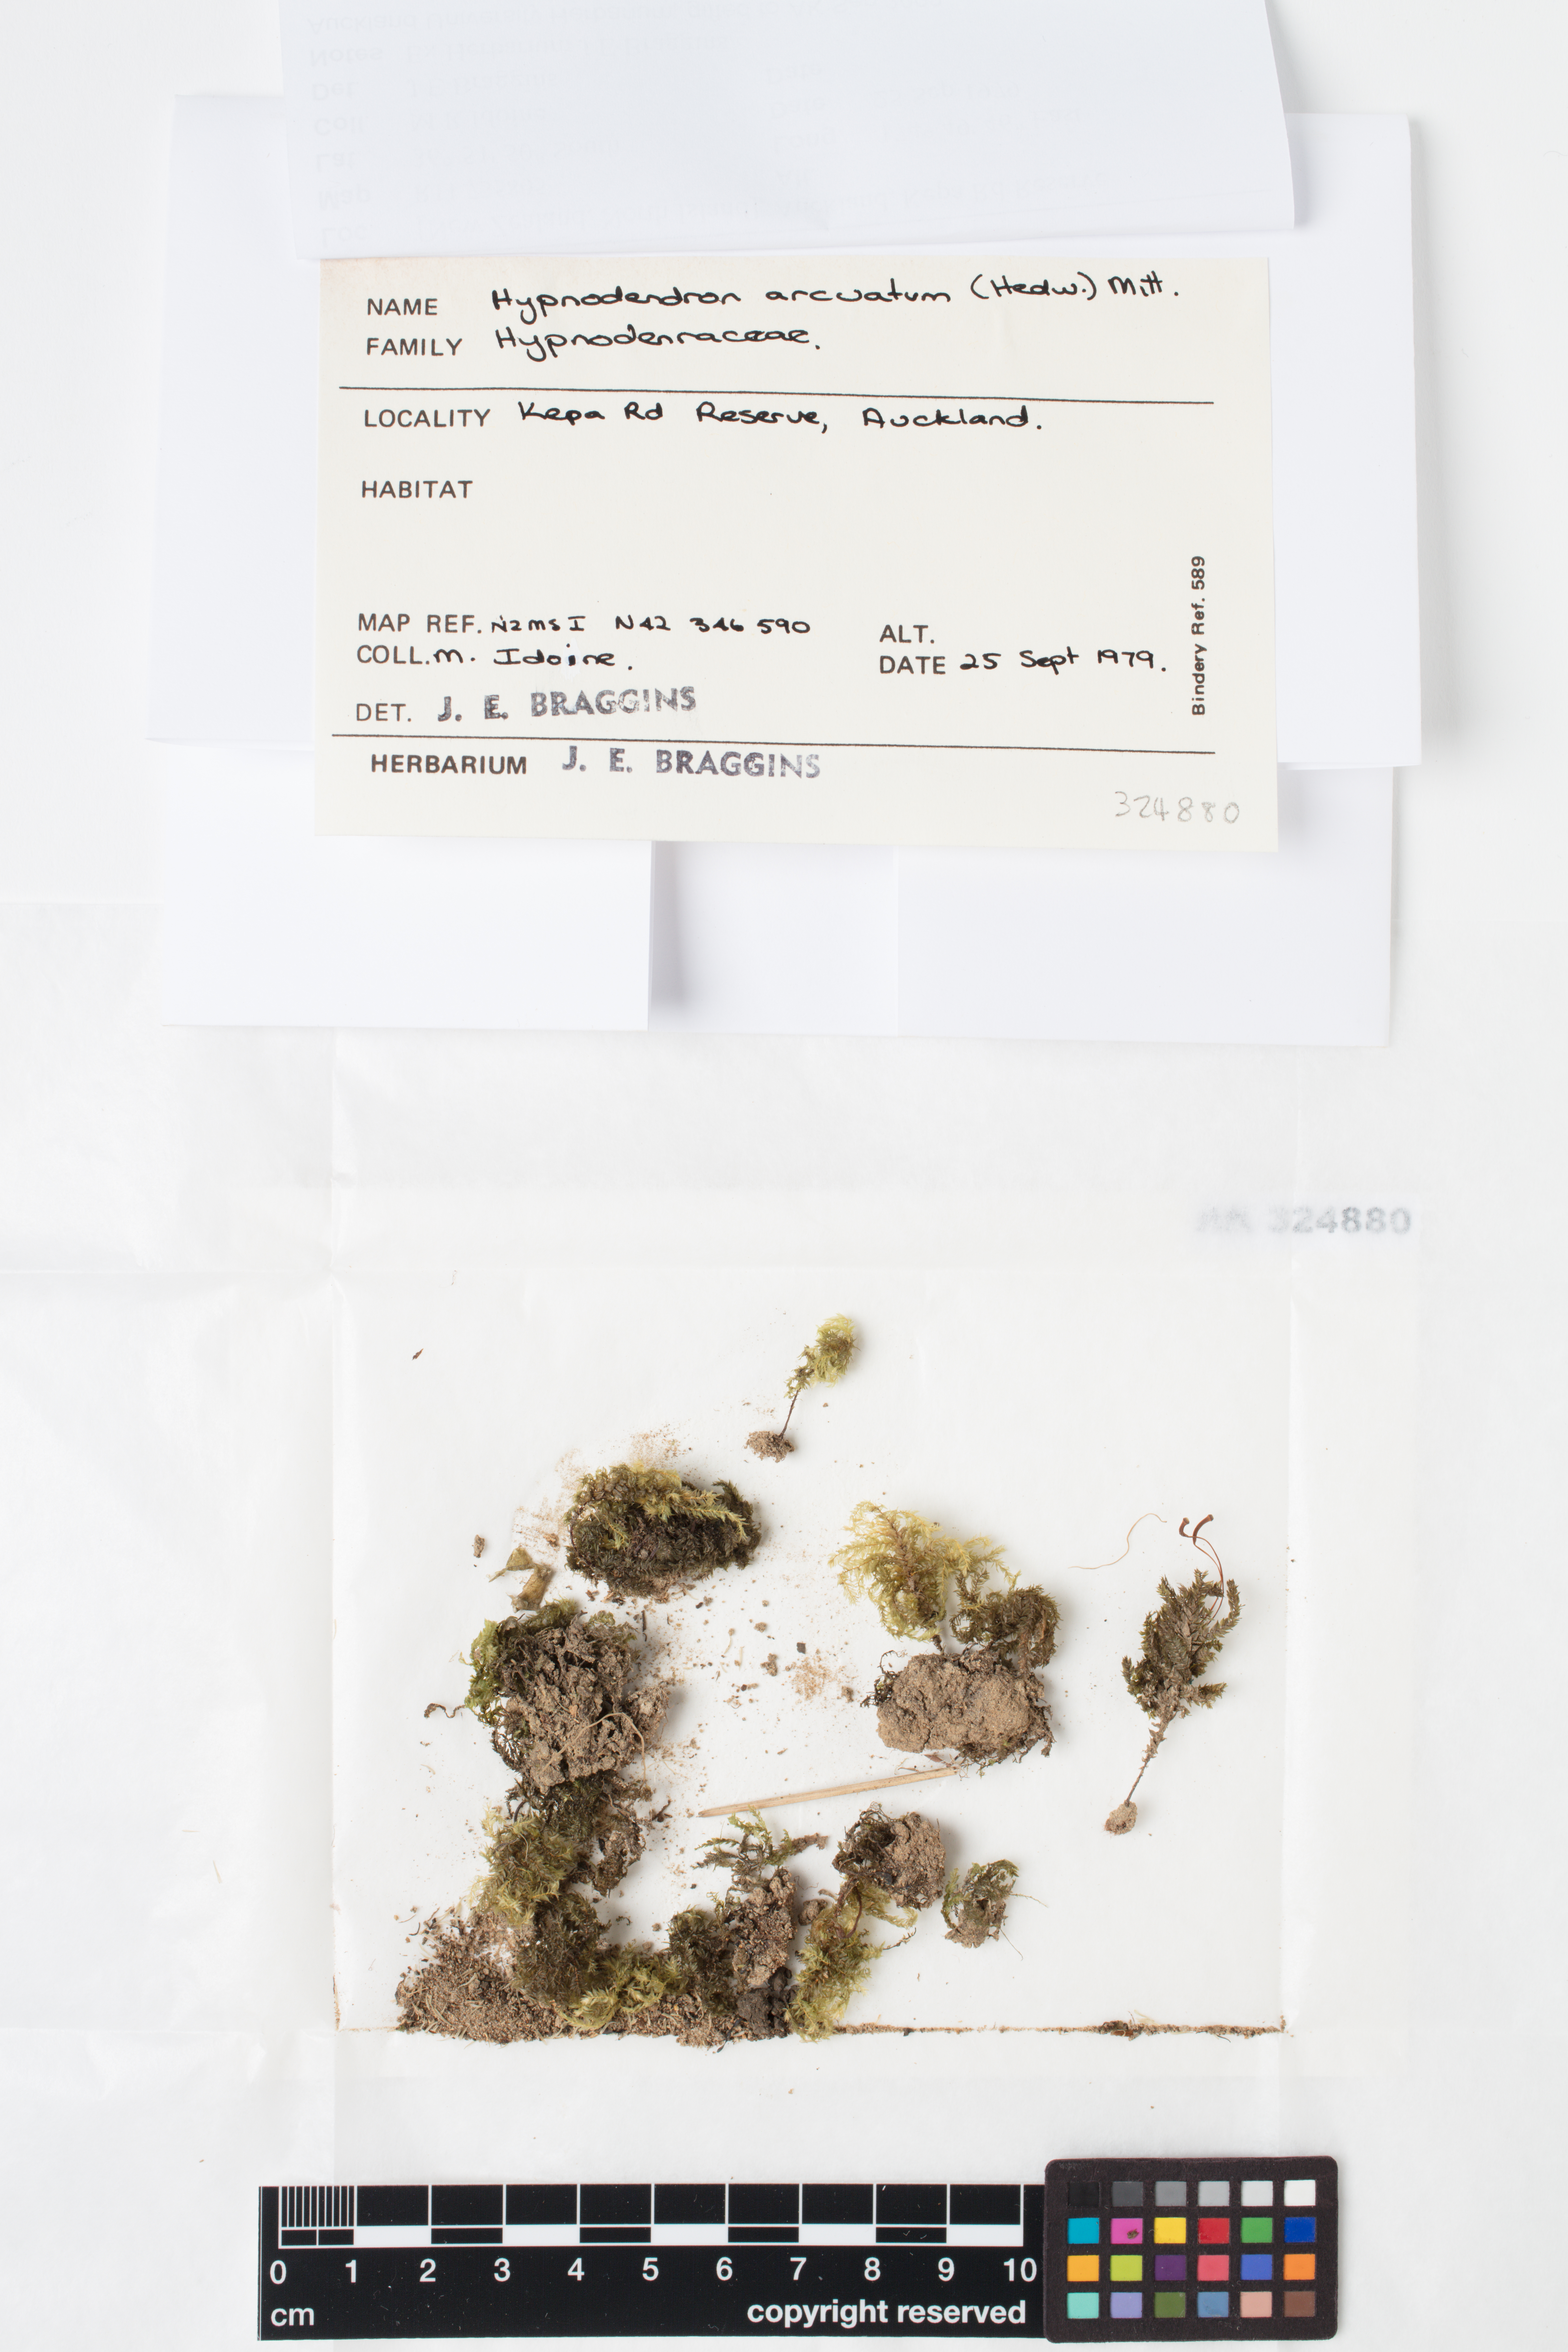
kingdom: Plantae
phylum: Bryophyta
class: Bryopsida
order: Hypnodendrales
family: Spiridentaceae
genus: Hypnodendron
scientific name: Hypnodendron arcuatum
